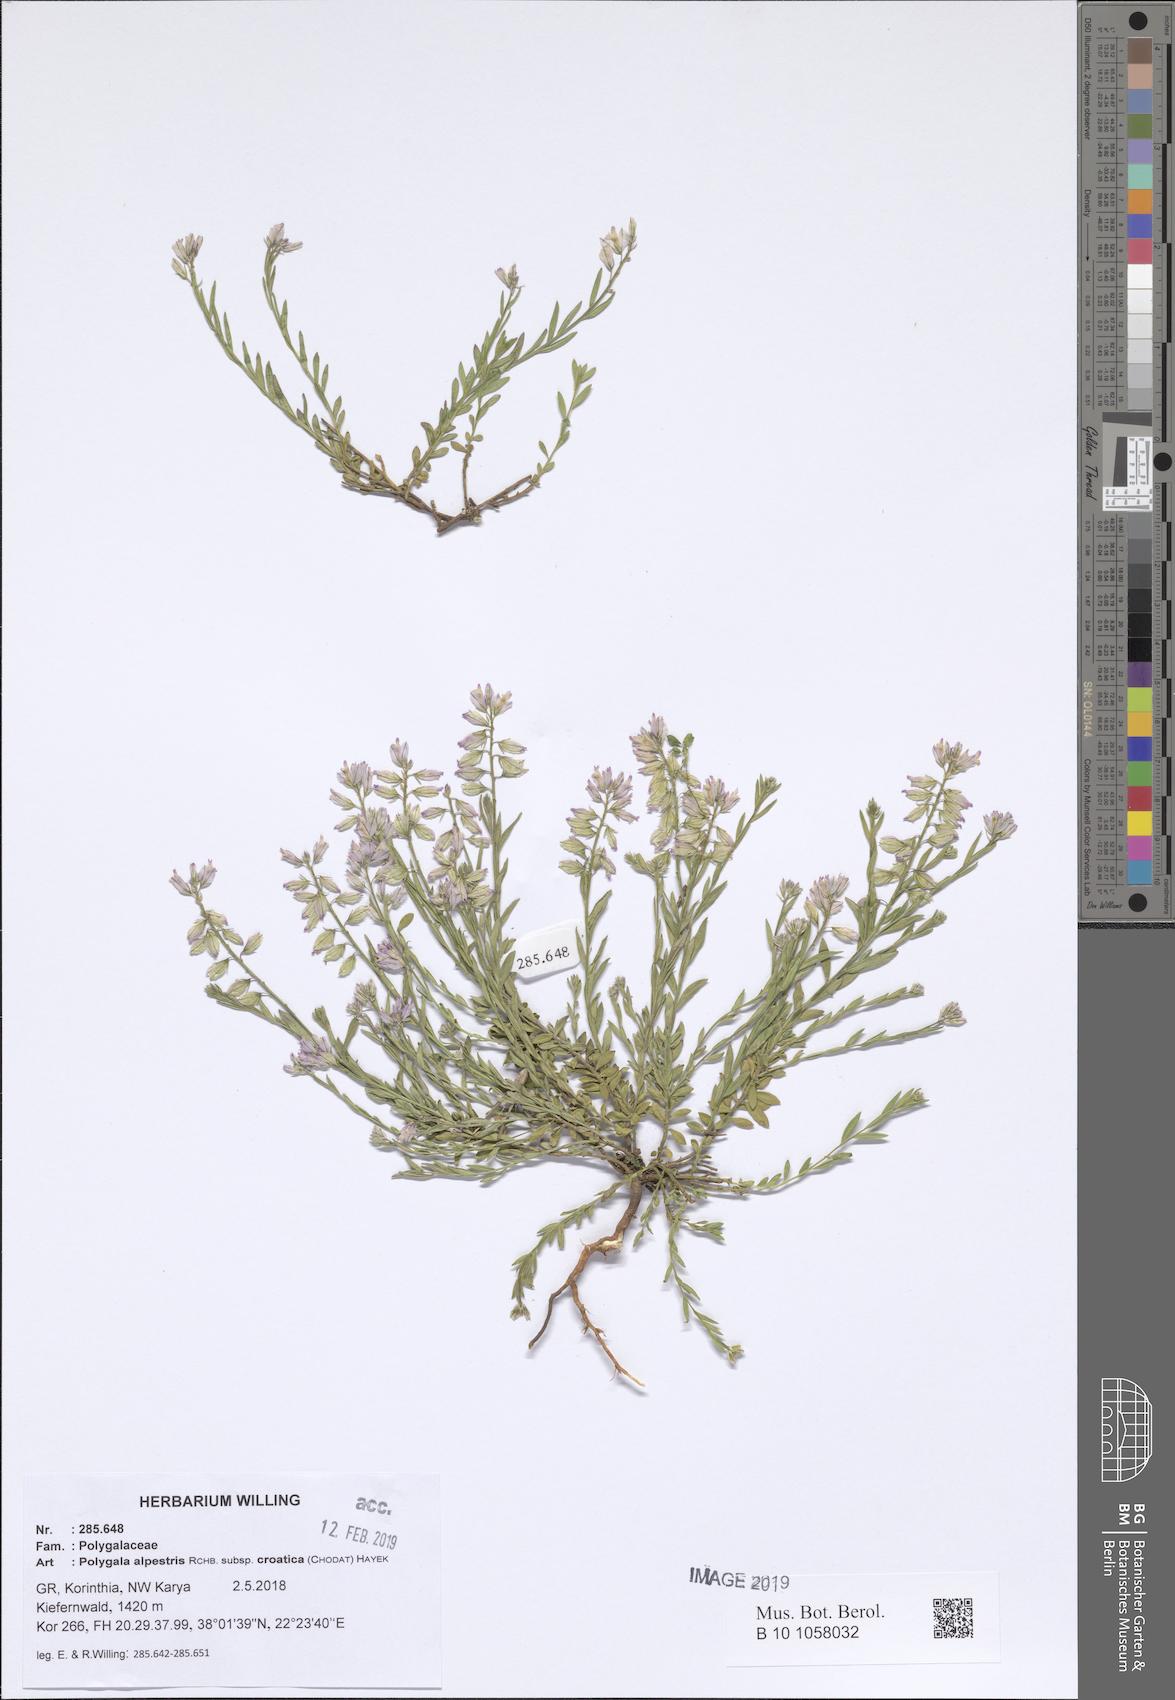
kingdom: Plantae
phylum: Tracheophyta
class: Magnoliopsida
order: Fabales
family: Polygalaceae
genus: Polygala
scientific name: Polygala alpestris
